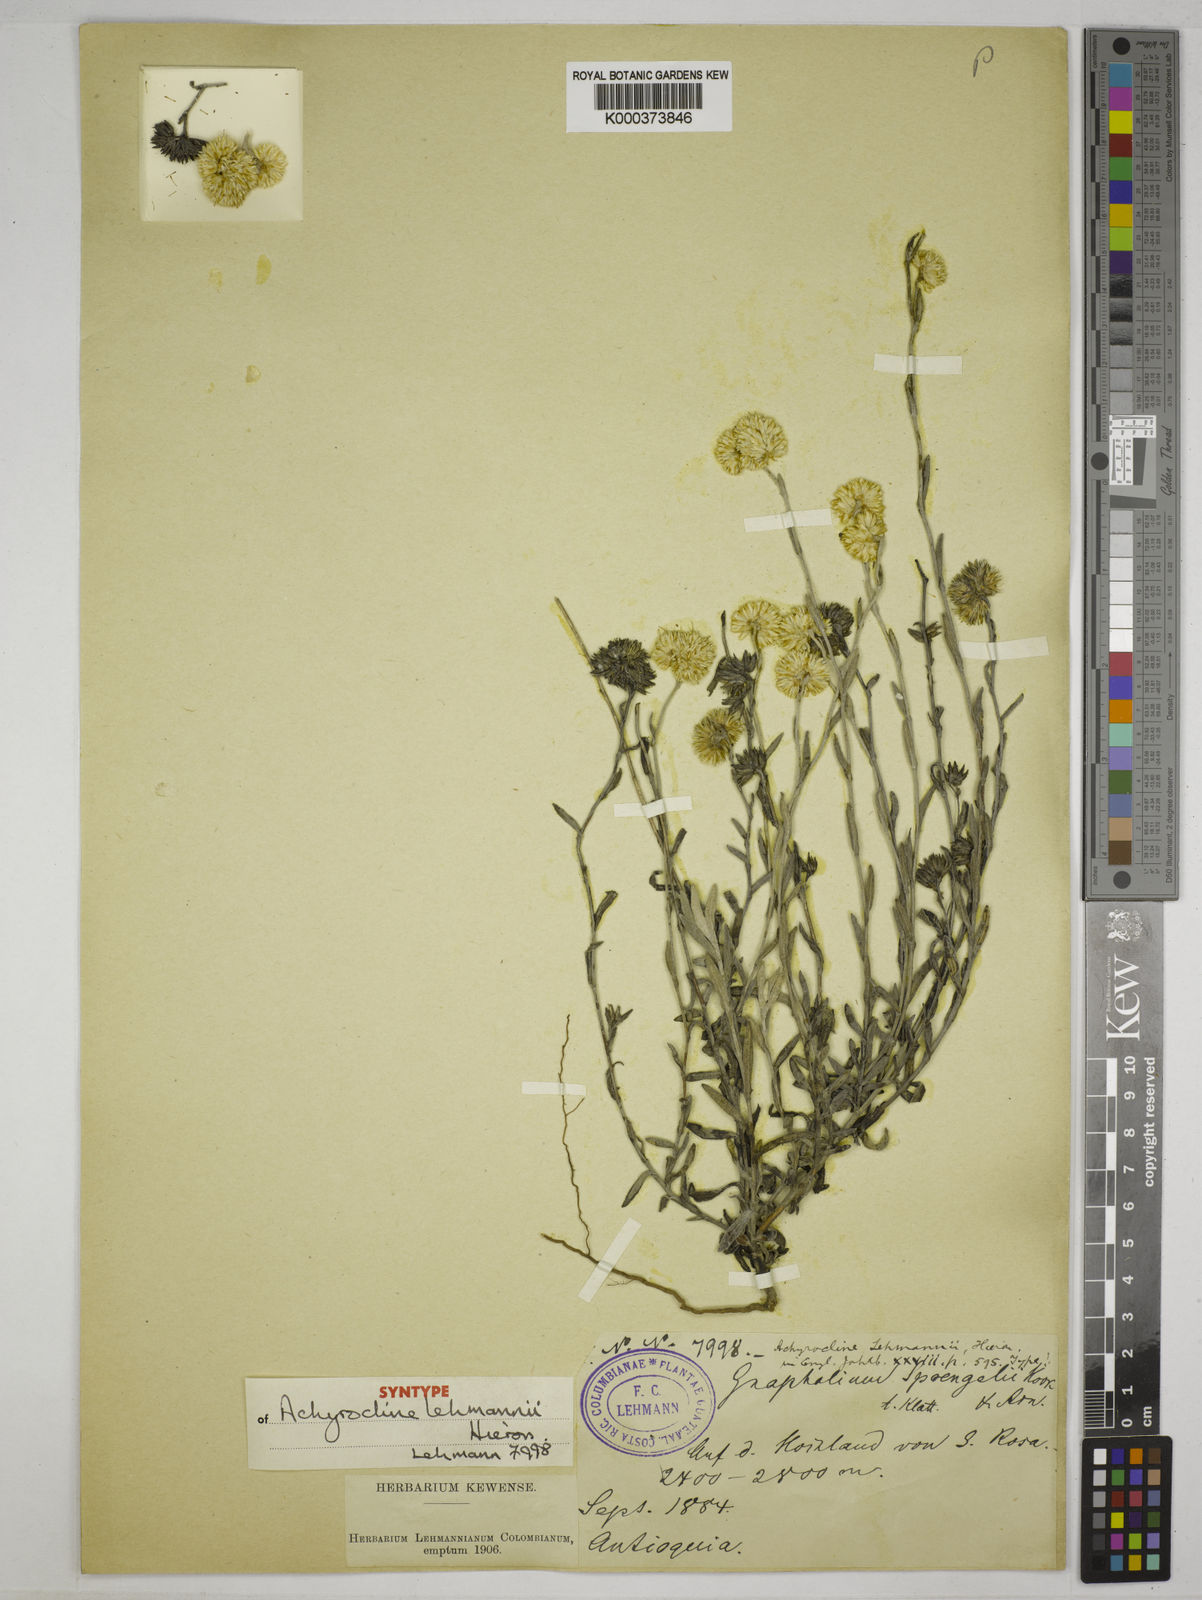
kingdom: Plantae
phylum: Tracheophyta
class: Magnoliopsida
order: Asterales
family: Asteraceae
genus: Achyrocline
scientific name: Achyrocline lehmannii
